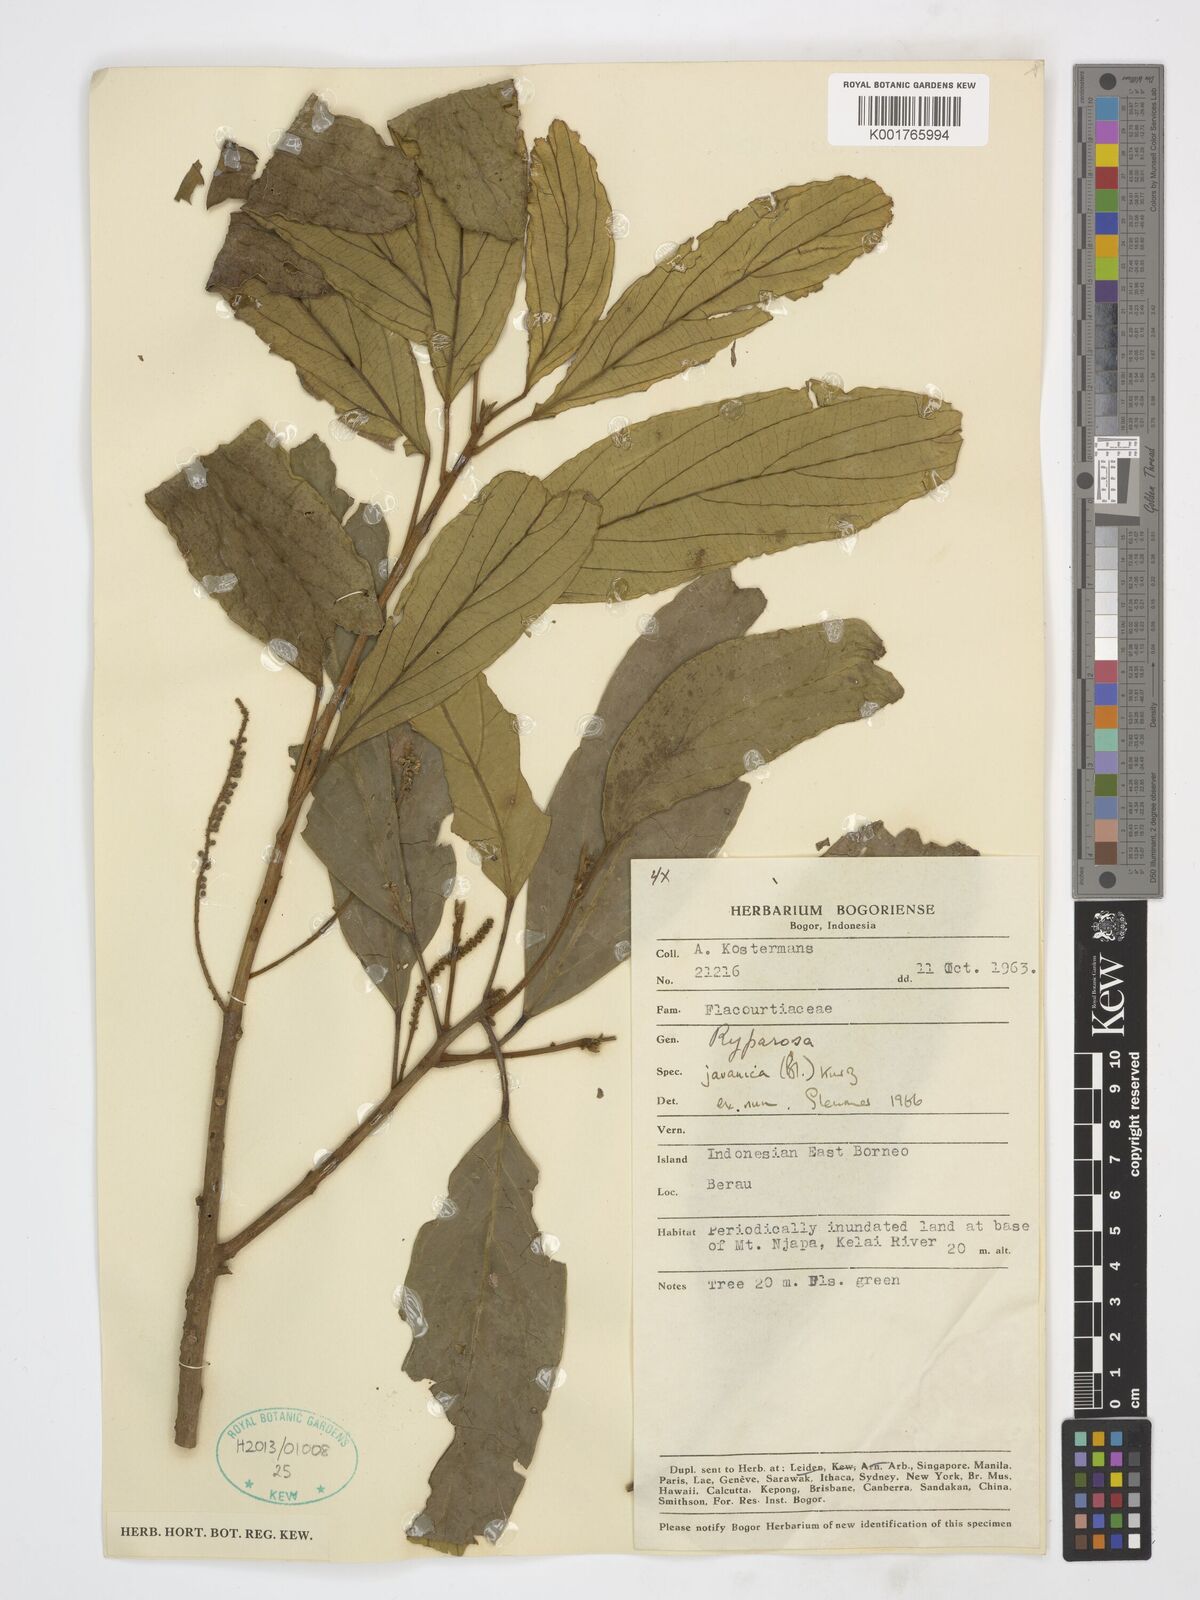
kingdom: Plantae
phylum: Tracheophyta
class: Magnoliopsida
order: Malpighiales
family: Achariaceae
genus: Ryparosa
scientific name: Ryparosa javanica
